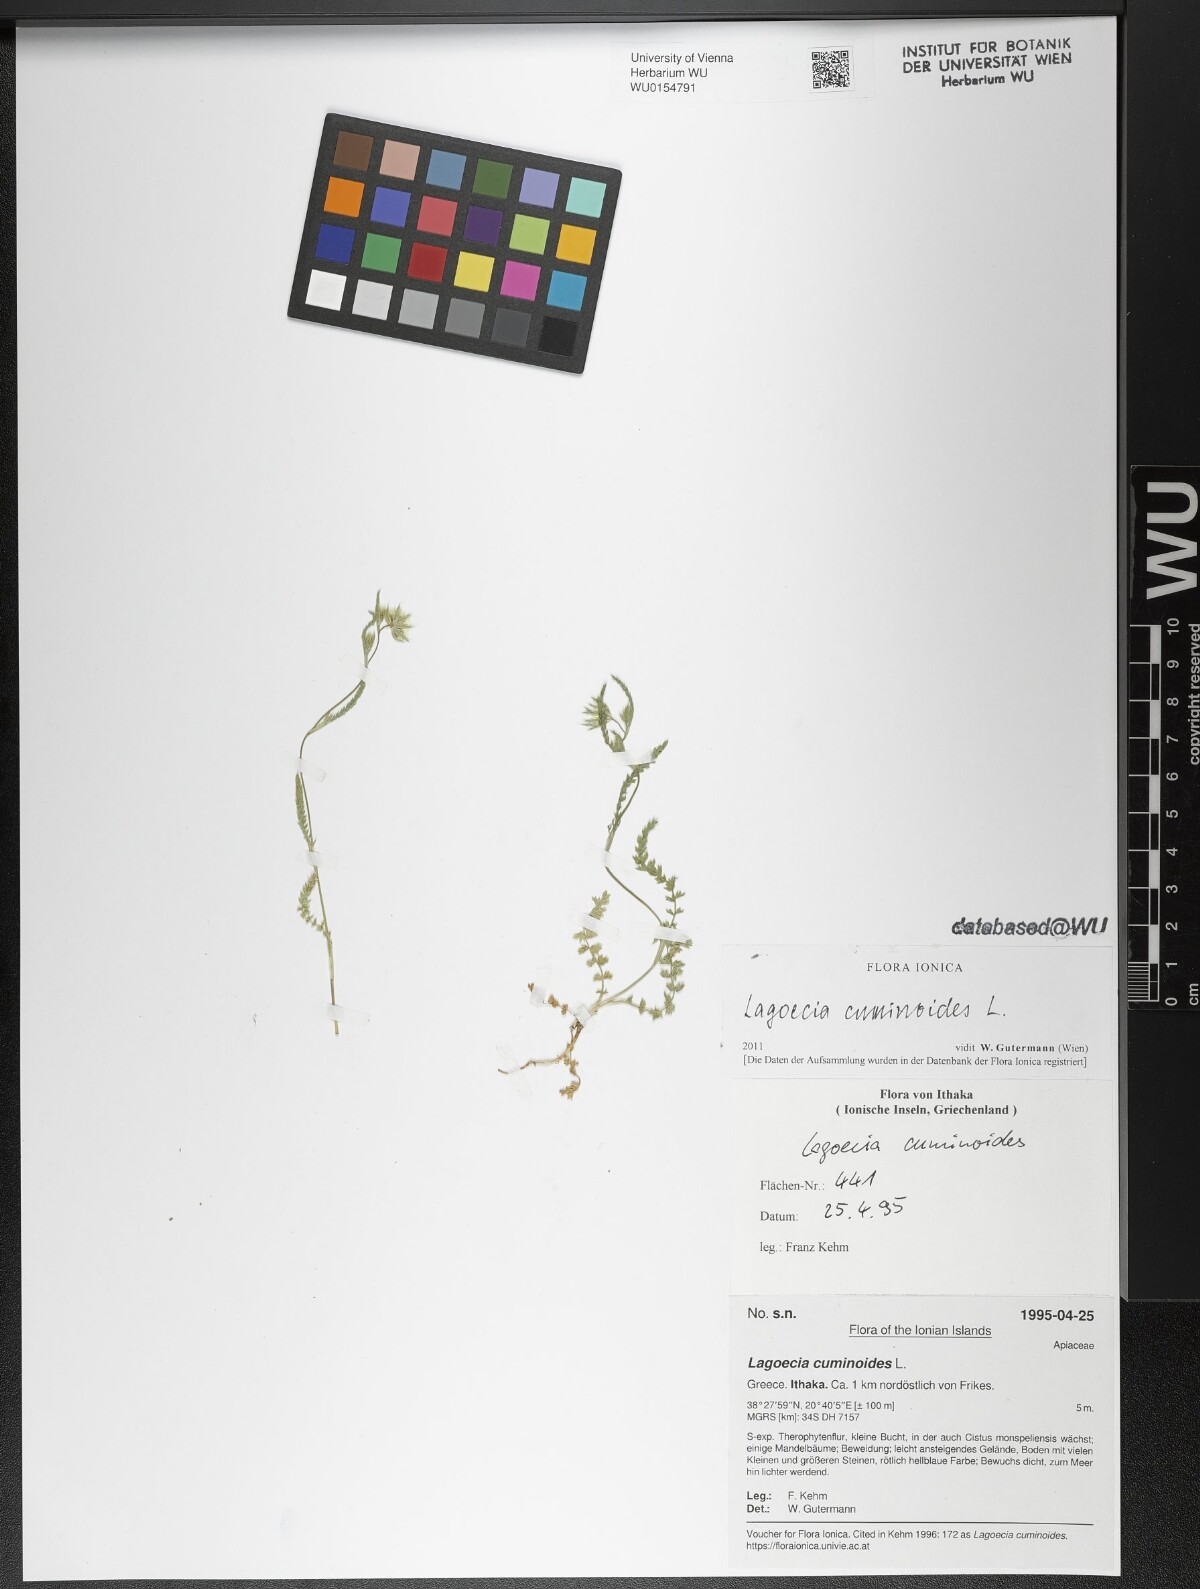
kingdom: Plantae
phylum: Tracheophyta
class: Magnoliopsida
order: Apiales
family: Apiaceae
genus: Lagoecia
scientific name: Lagoecia cuminoides
